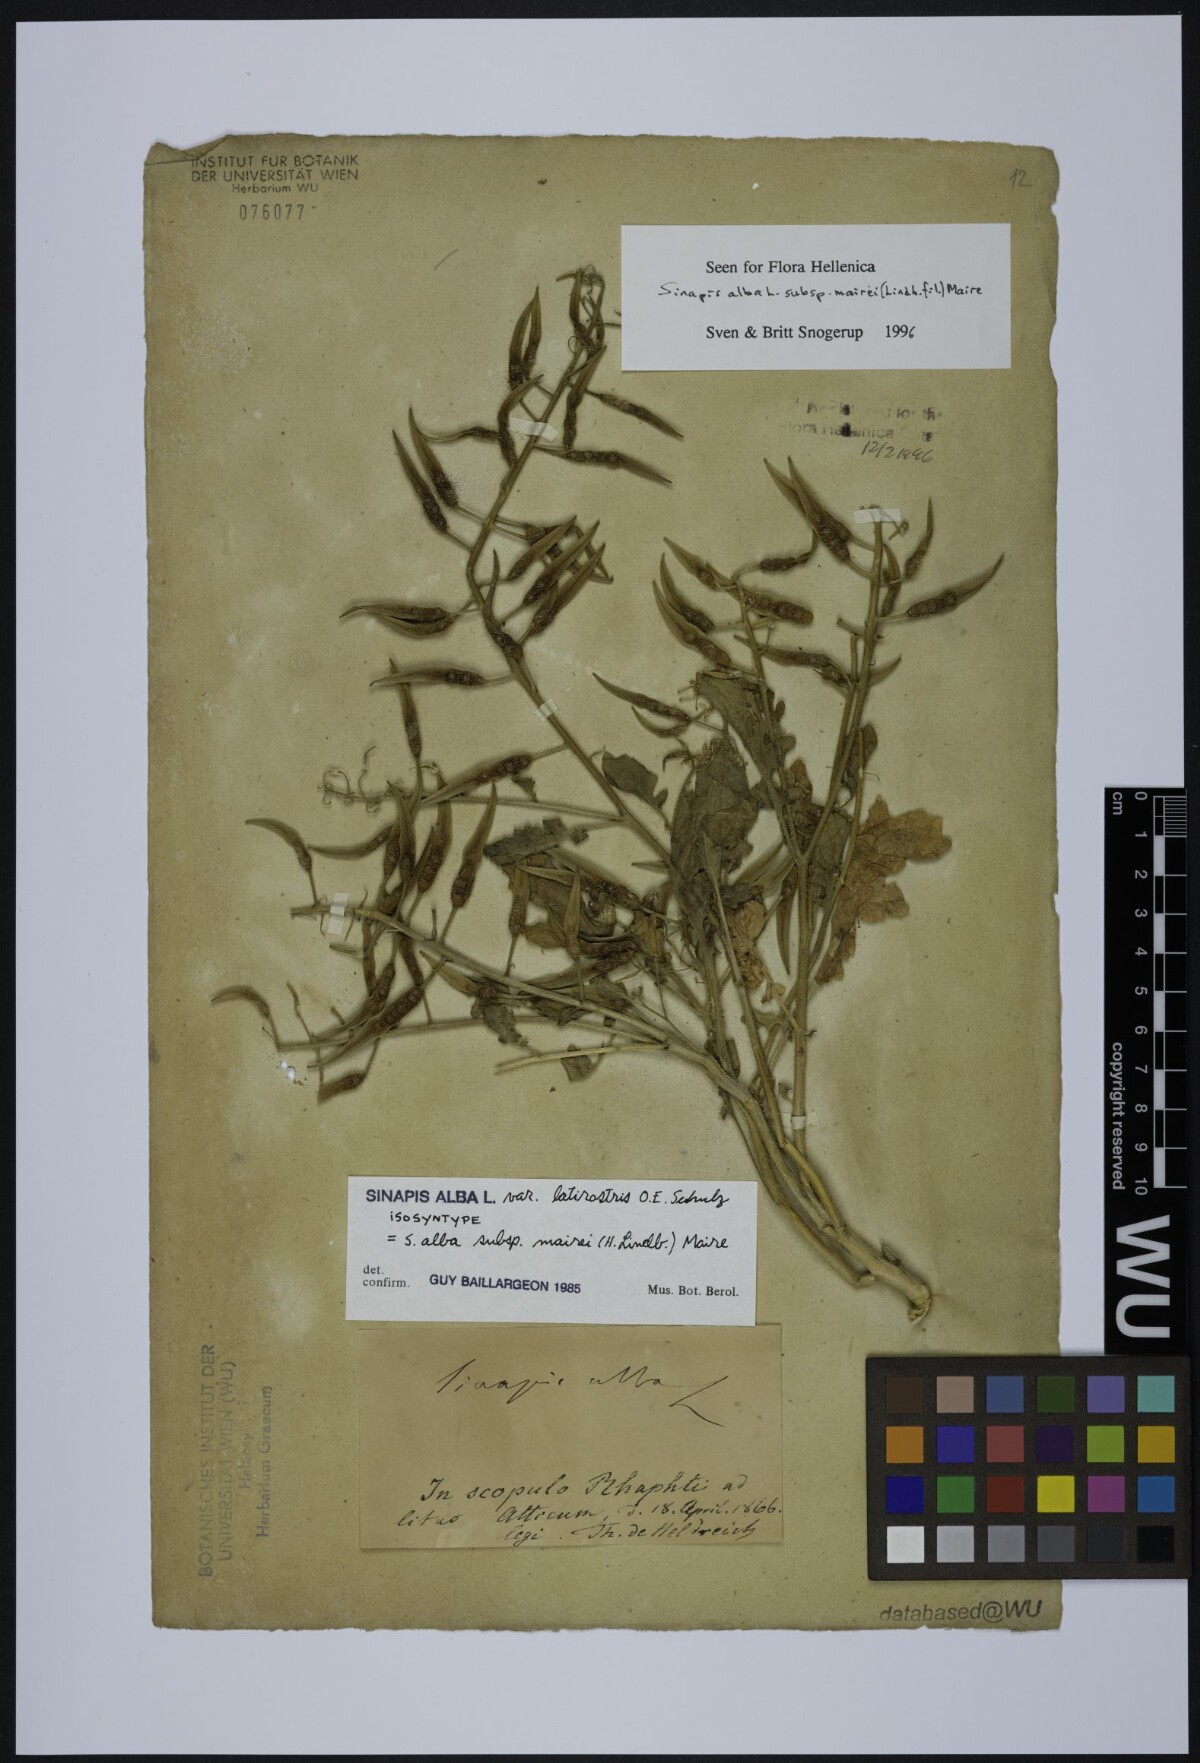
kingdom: Plantae
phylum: Tracheophyta
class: Magnoliopsida
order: Brassicales
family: Brassicaceae
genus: Sinapis
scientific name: Sinapis alba
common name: White mustard
